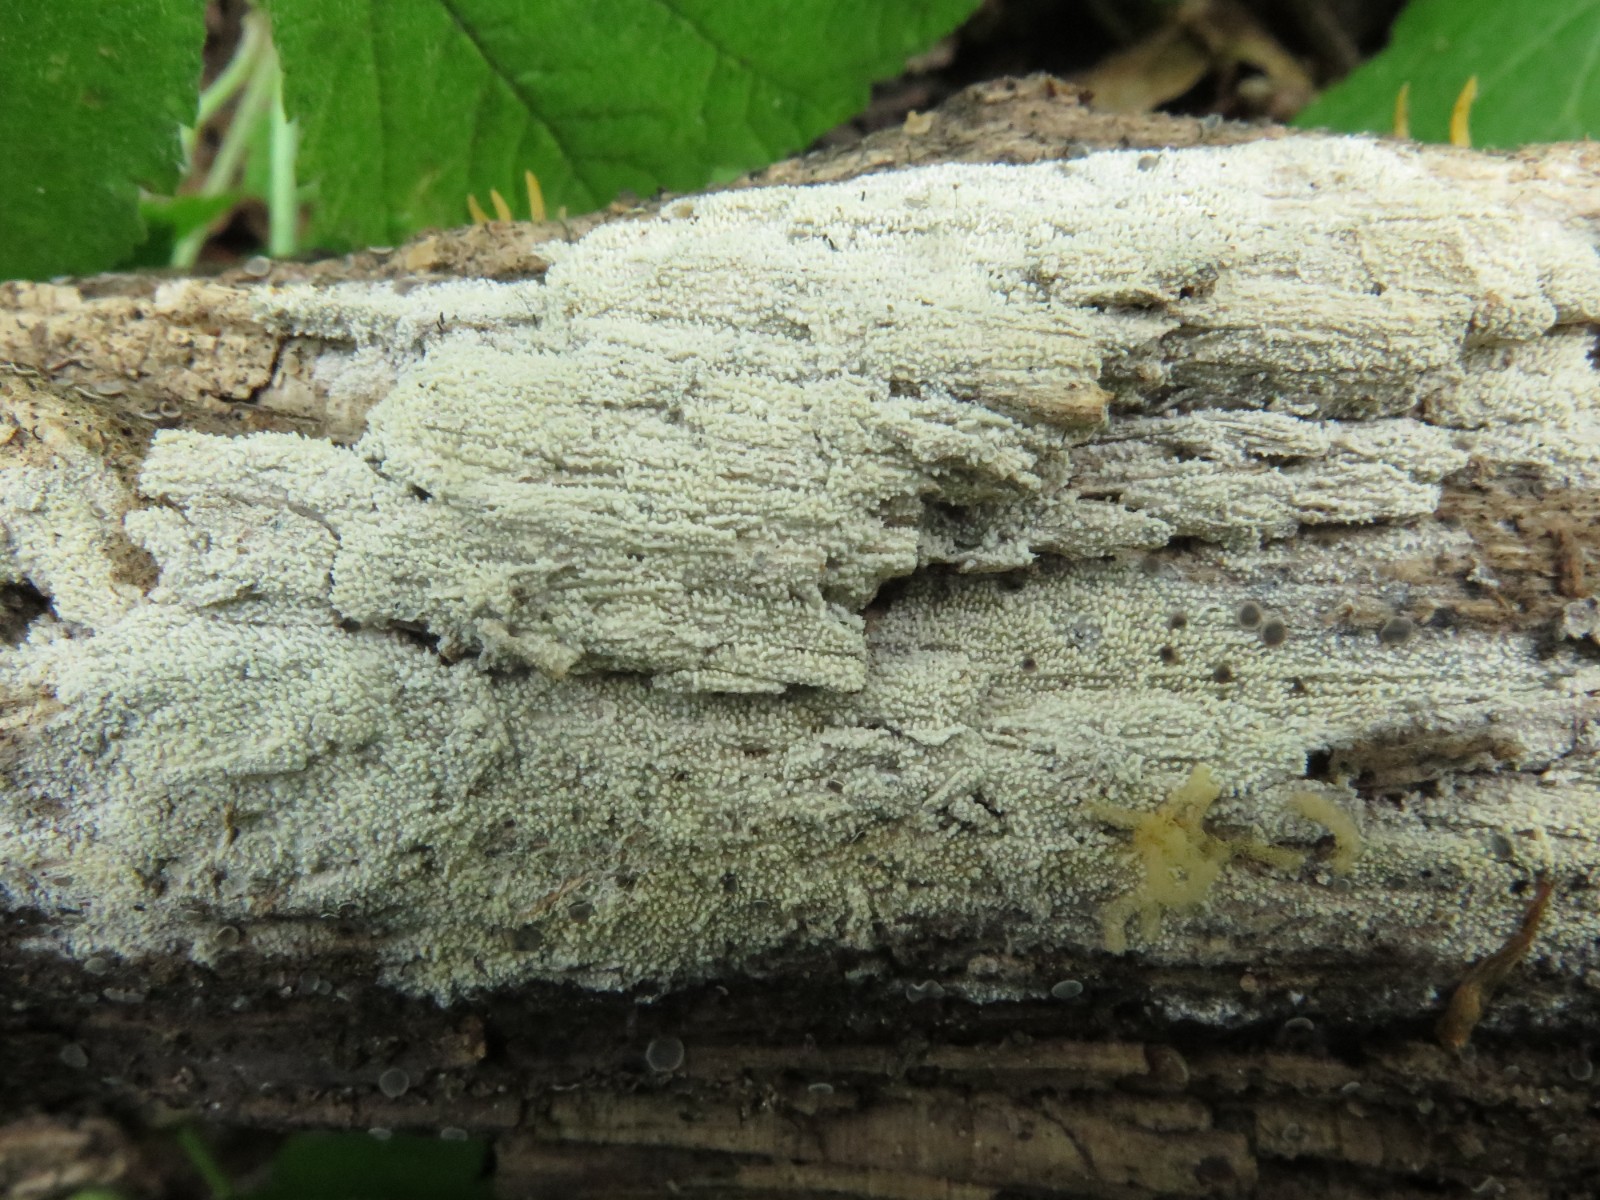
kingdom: Fungi
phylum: Basidiomycota
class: Agaricomycetes
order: Hymenochaetales
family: Hyphodontiaceae
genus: Hyphodontia
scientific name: Hyphodontia arguta
